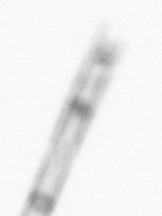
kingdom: Chromista
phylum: Ochrophyta
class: Bacillariophyceae
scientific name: Bacillariophyceae
